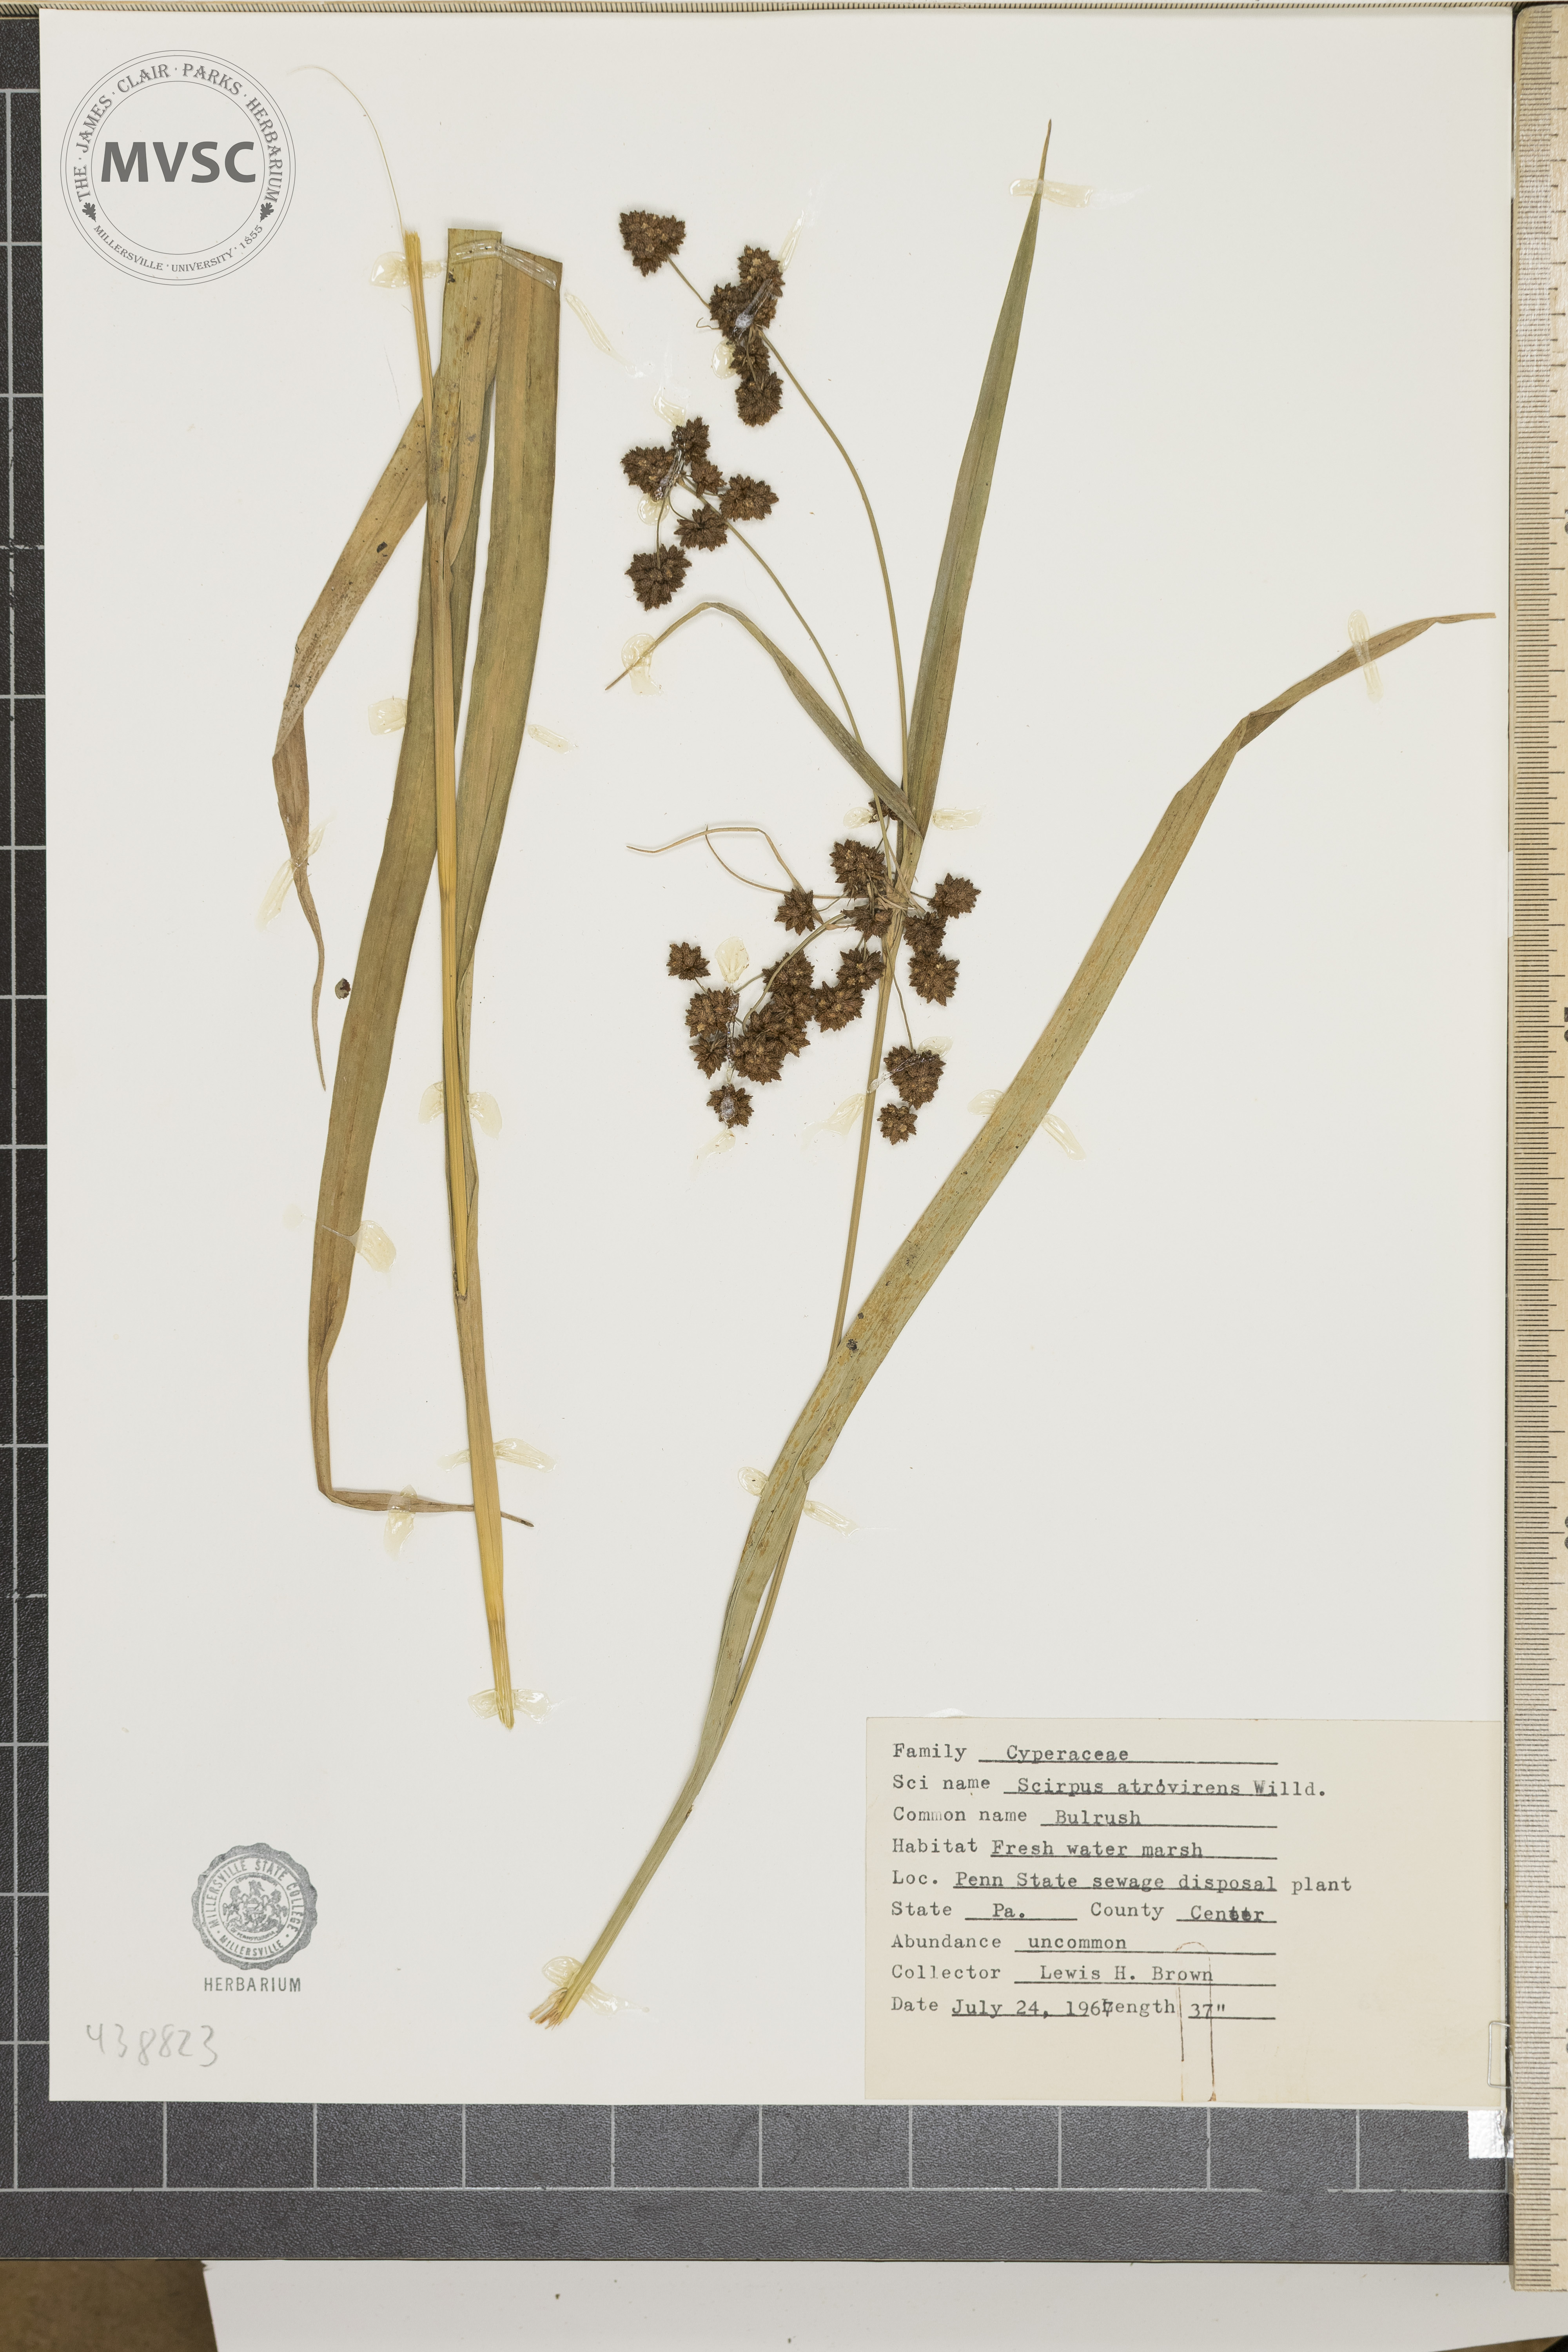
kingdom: Plantae
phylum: Tracheophyta
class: Liliopsida
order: Poales
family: Cyperaceae
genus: Scirpus
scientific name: Scirpus atrovirens
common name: Black bulrush
